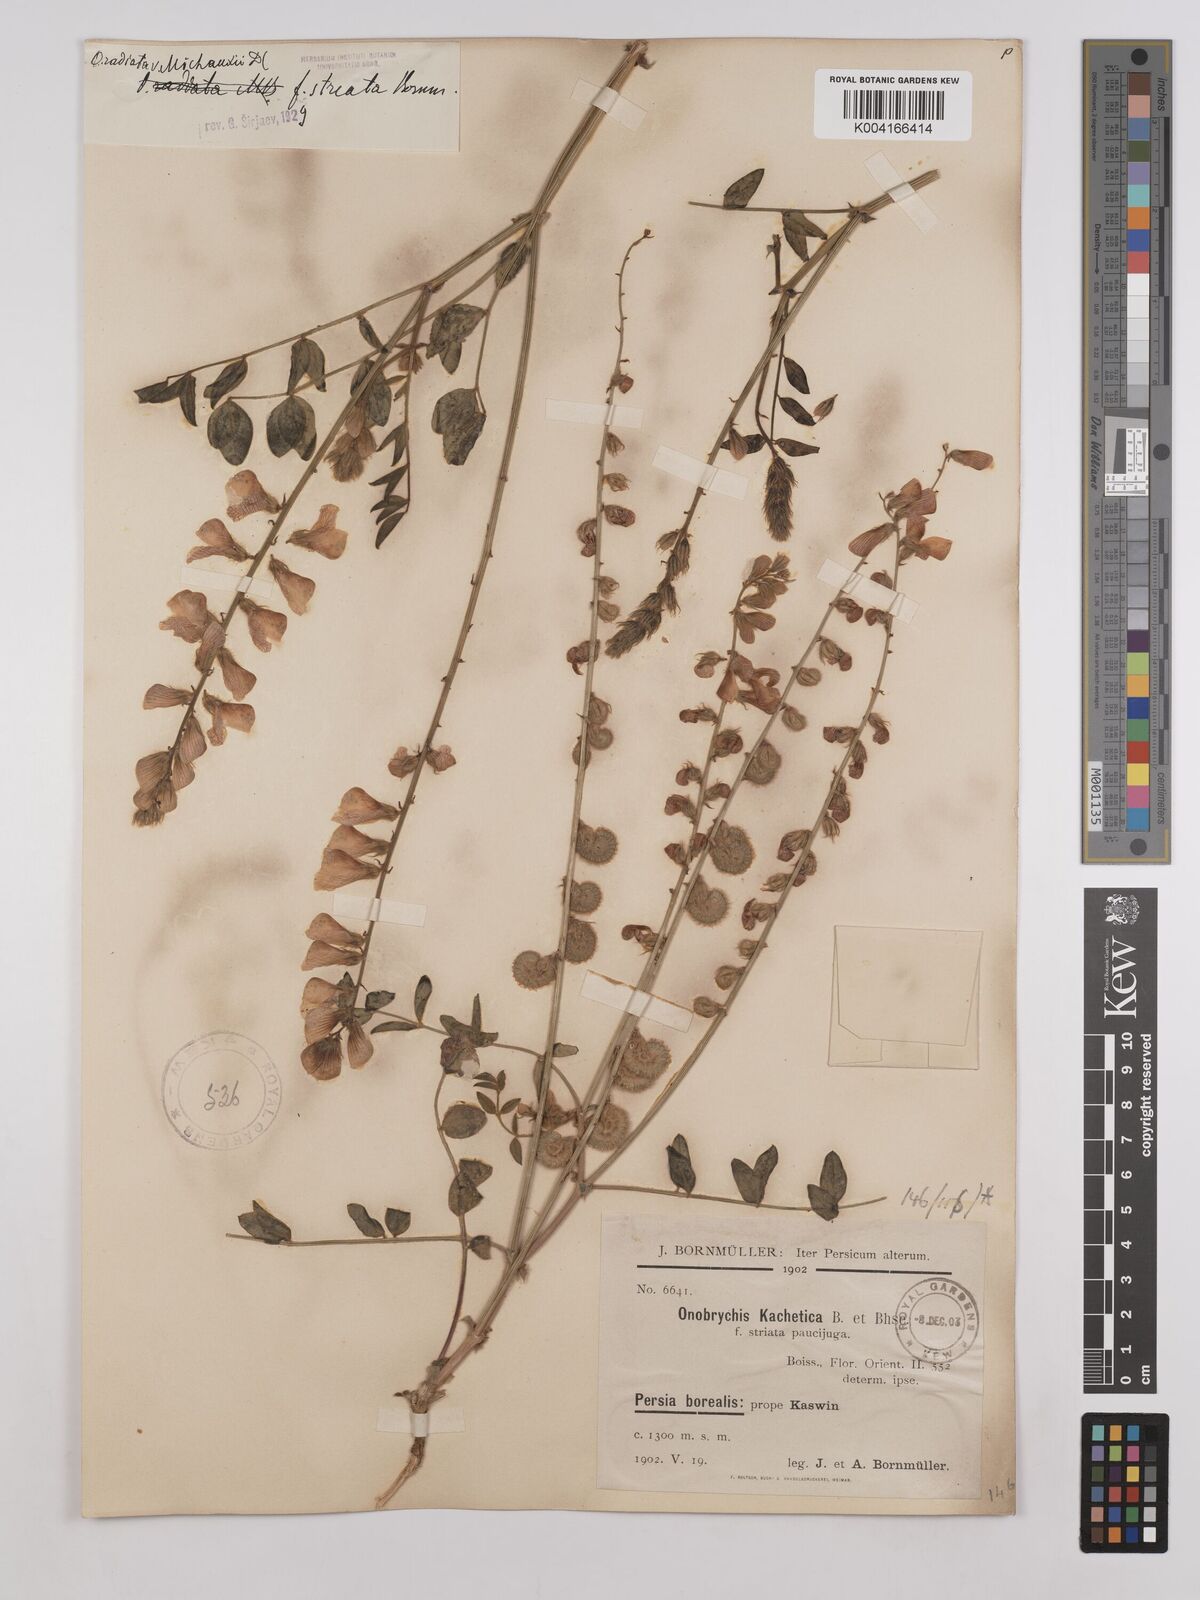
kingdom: Plantae
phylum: Tracheophyta
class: Magnoliopsida
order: Fabales
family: Fabaceae
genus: Onobrychis
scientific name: Onobrychis
